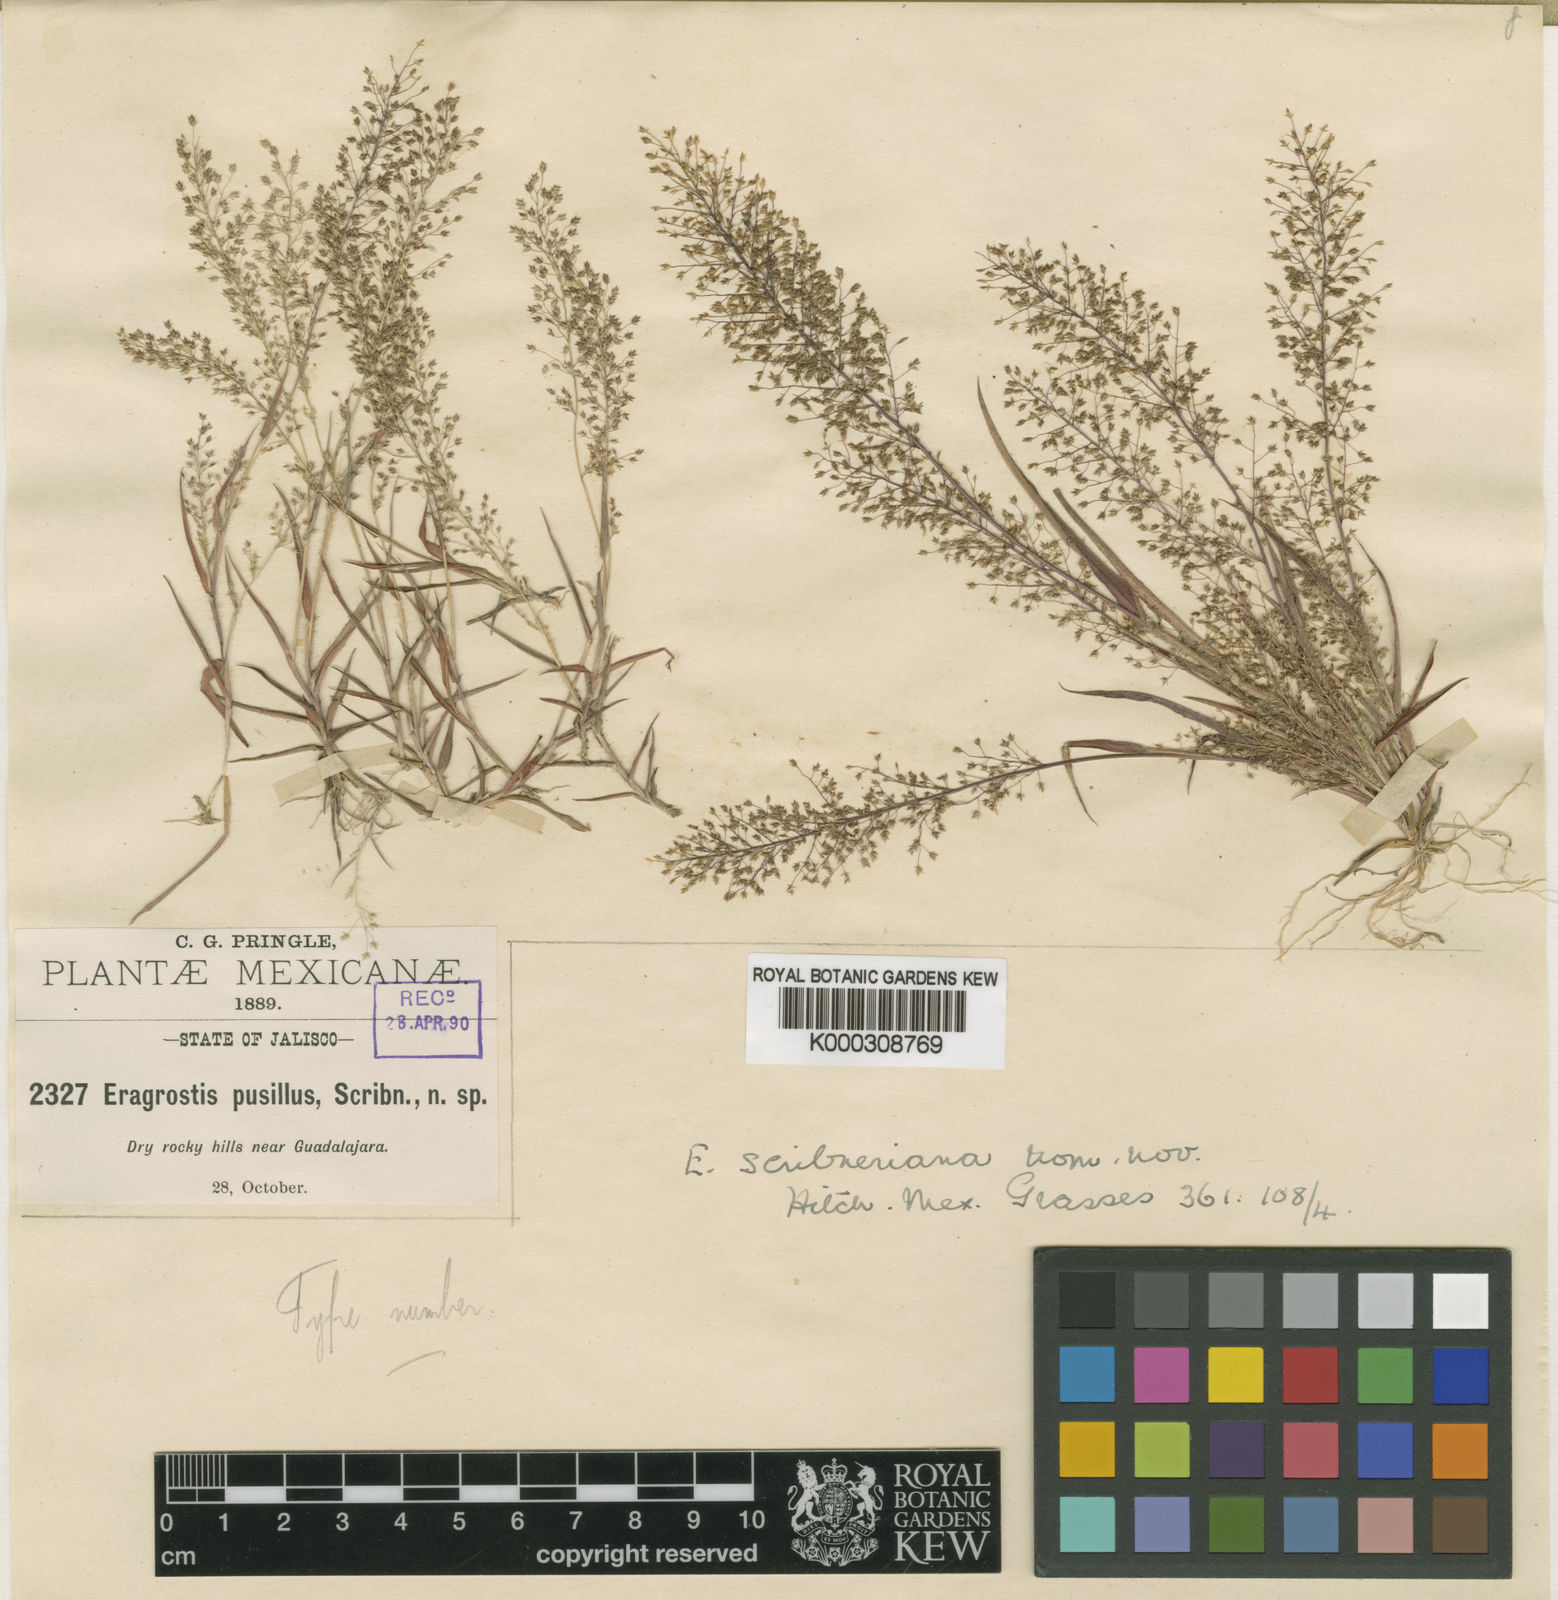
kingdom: Plantae
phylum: Tracheophyta
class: Liliopsida
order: Poales
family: Poaceae
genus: Eragrostis
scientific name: Eragrostis pringlei
